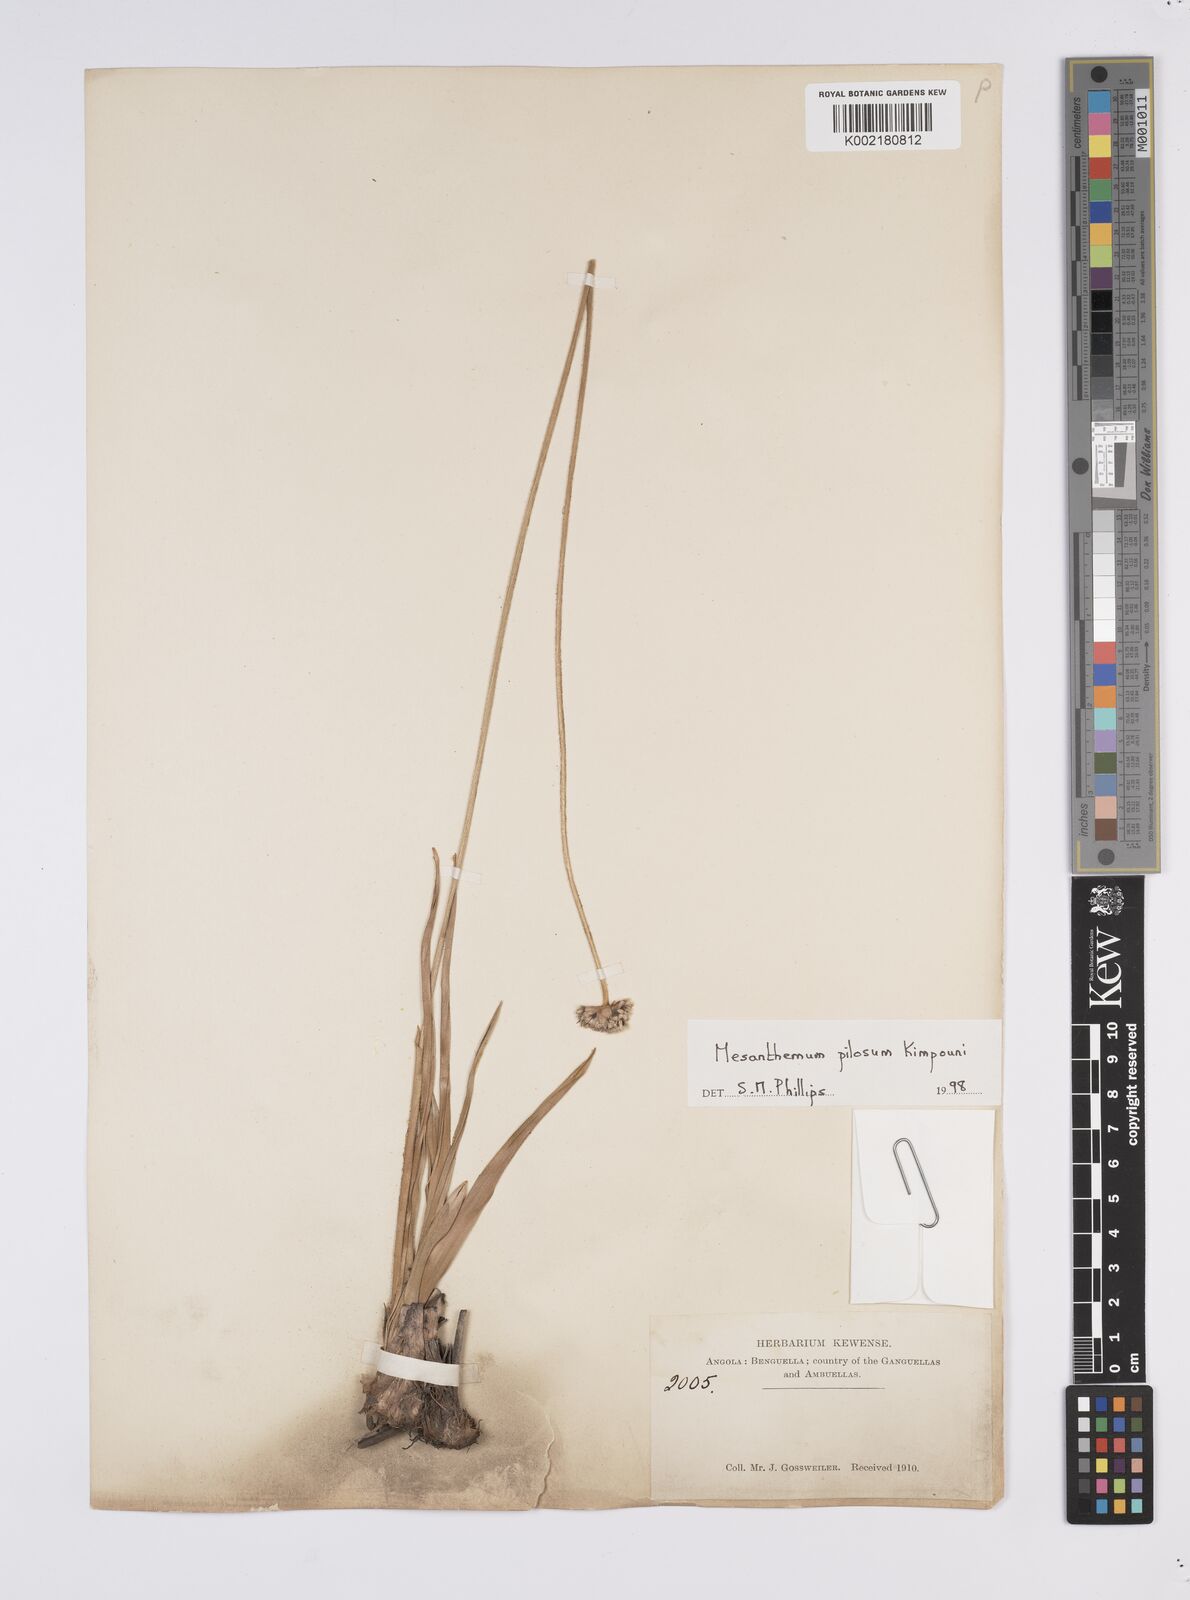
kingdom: Plantae
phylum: Tracheophyta
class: Liliopsida
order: Poales
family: Eriocaulaceae
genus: Mesanthemum
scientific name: Mesanthemum pilosum
